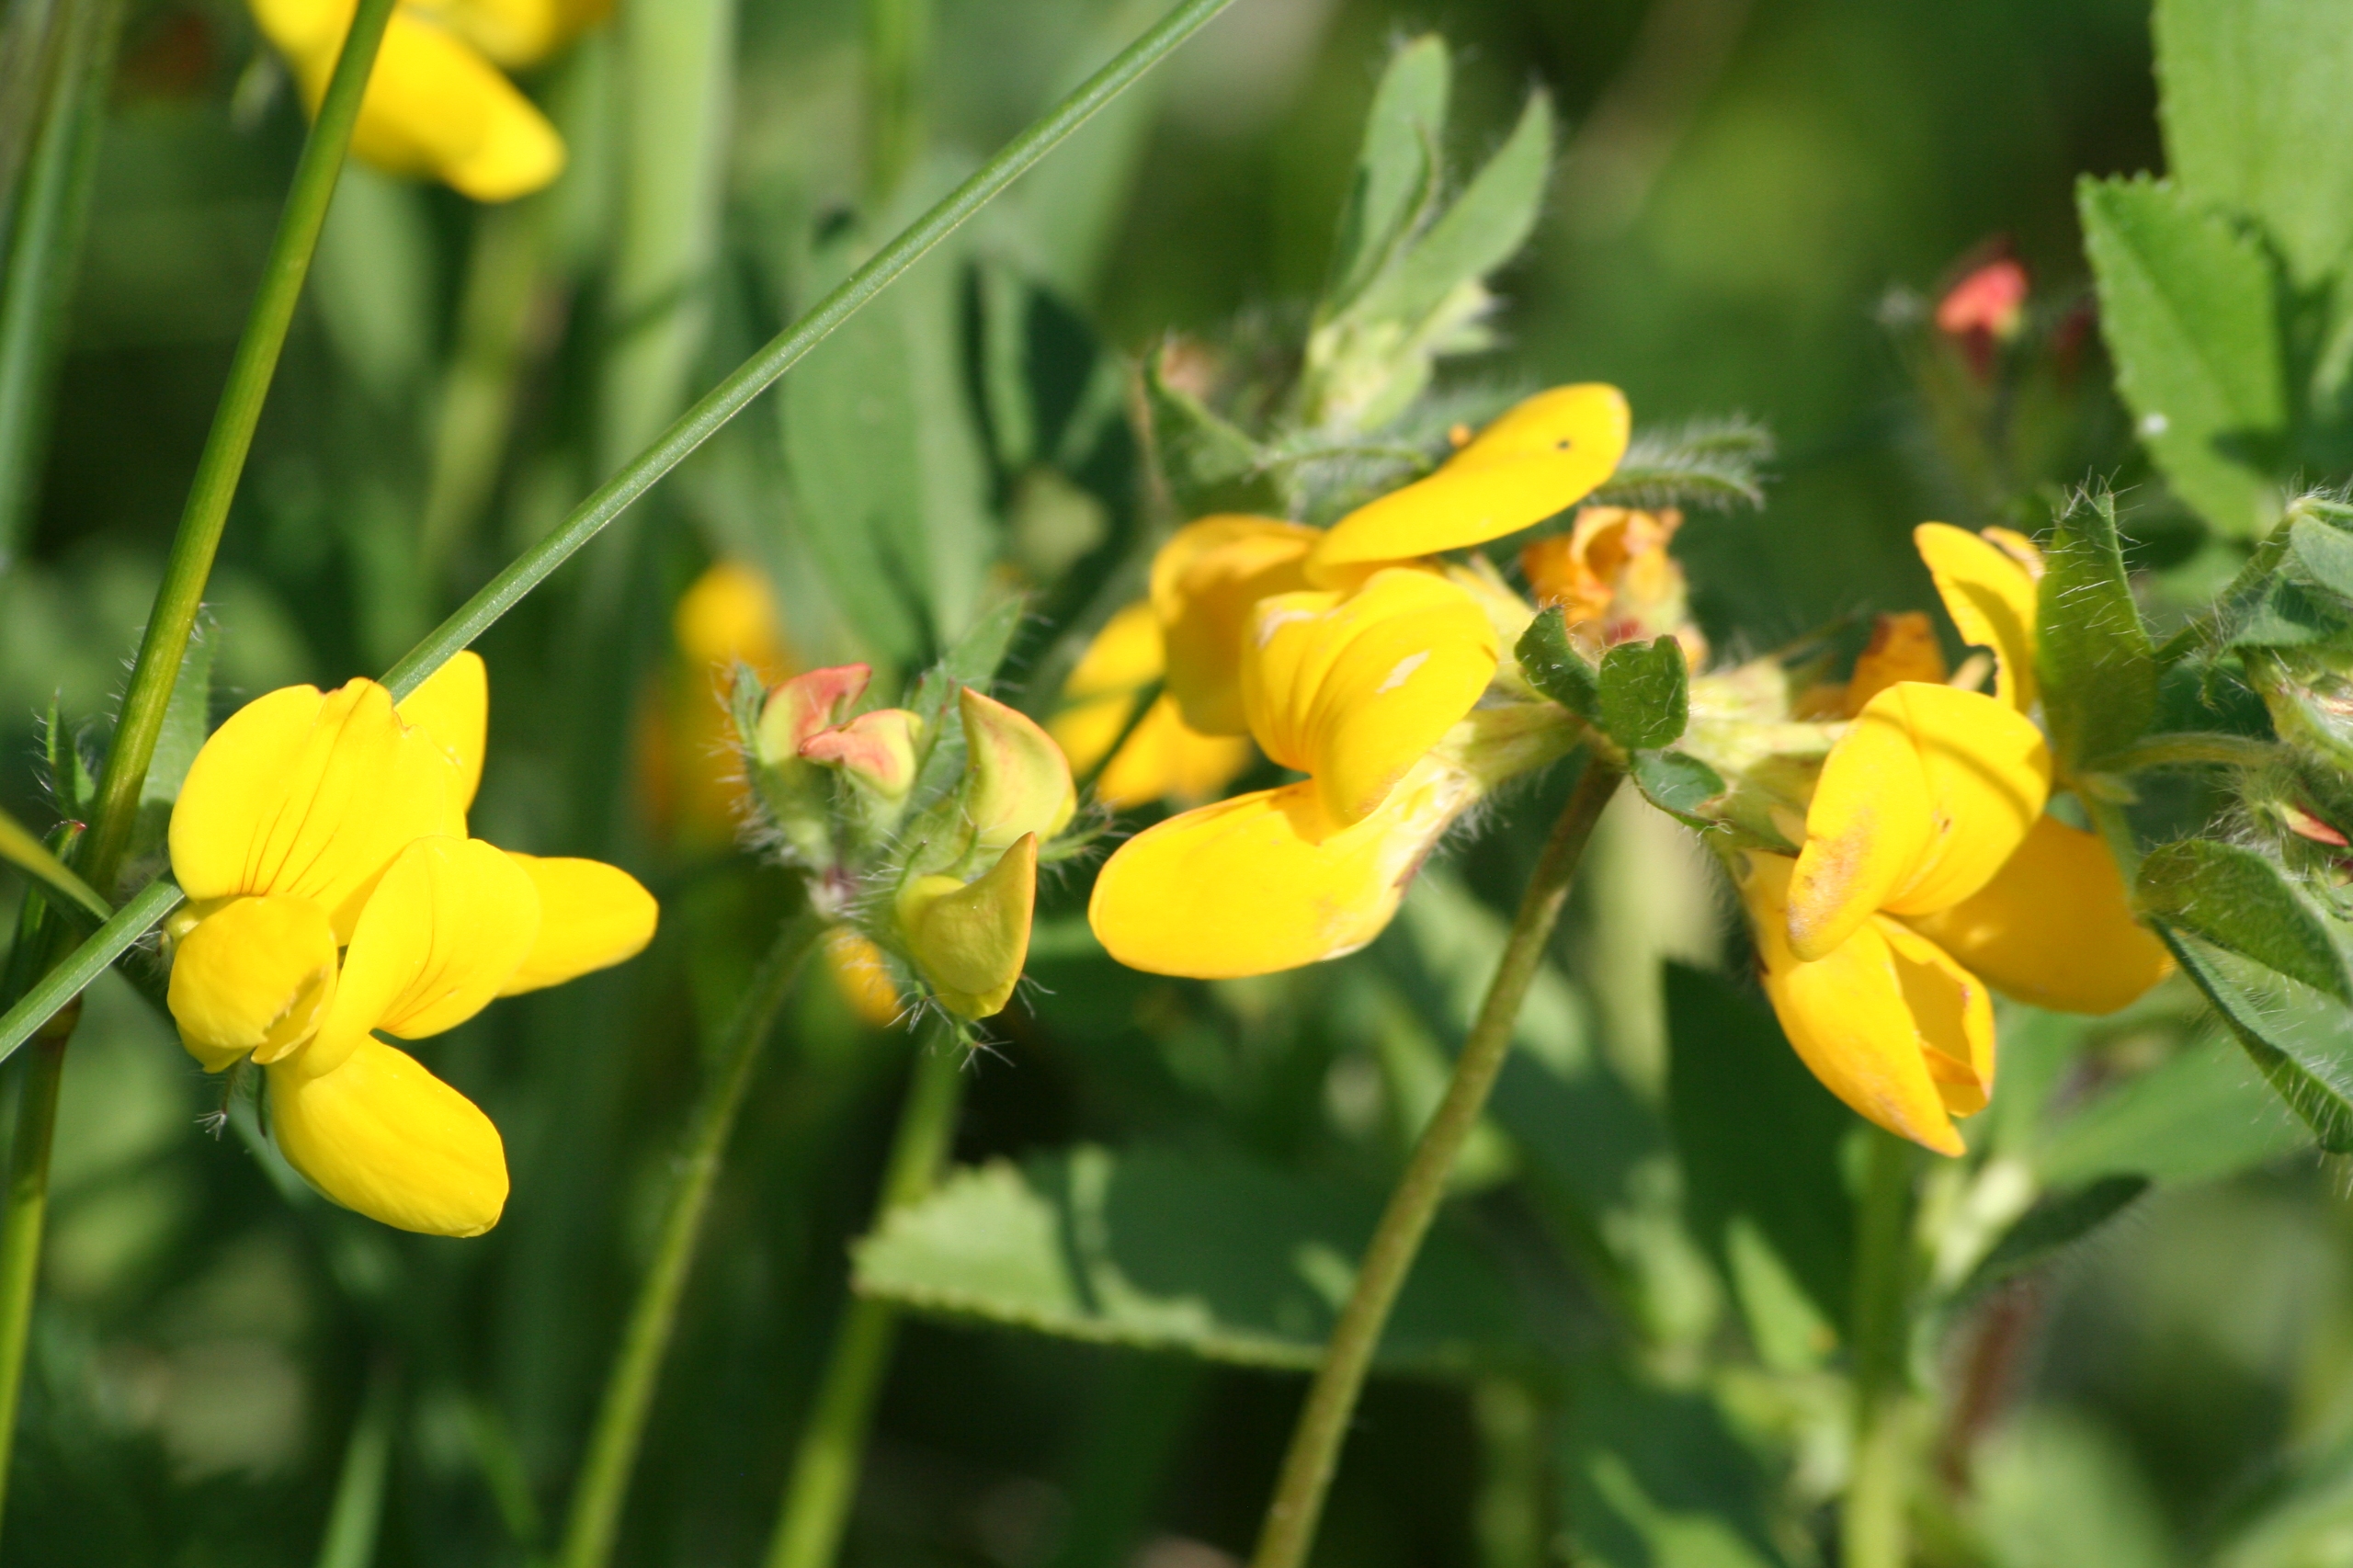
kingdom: Plantae
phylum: Tracheophyta
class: Magnoliopsida
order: Fabales
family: Fabaceae
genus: Lotus
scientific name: Lotus corniculatus
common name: Almindelig kællingetand
